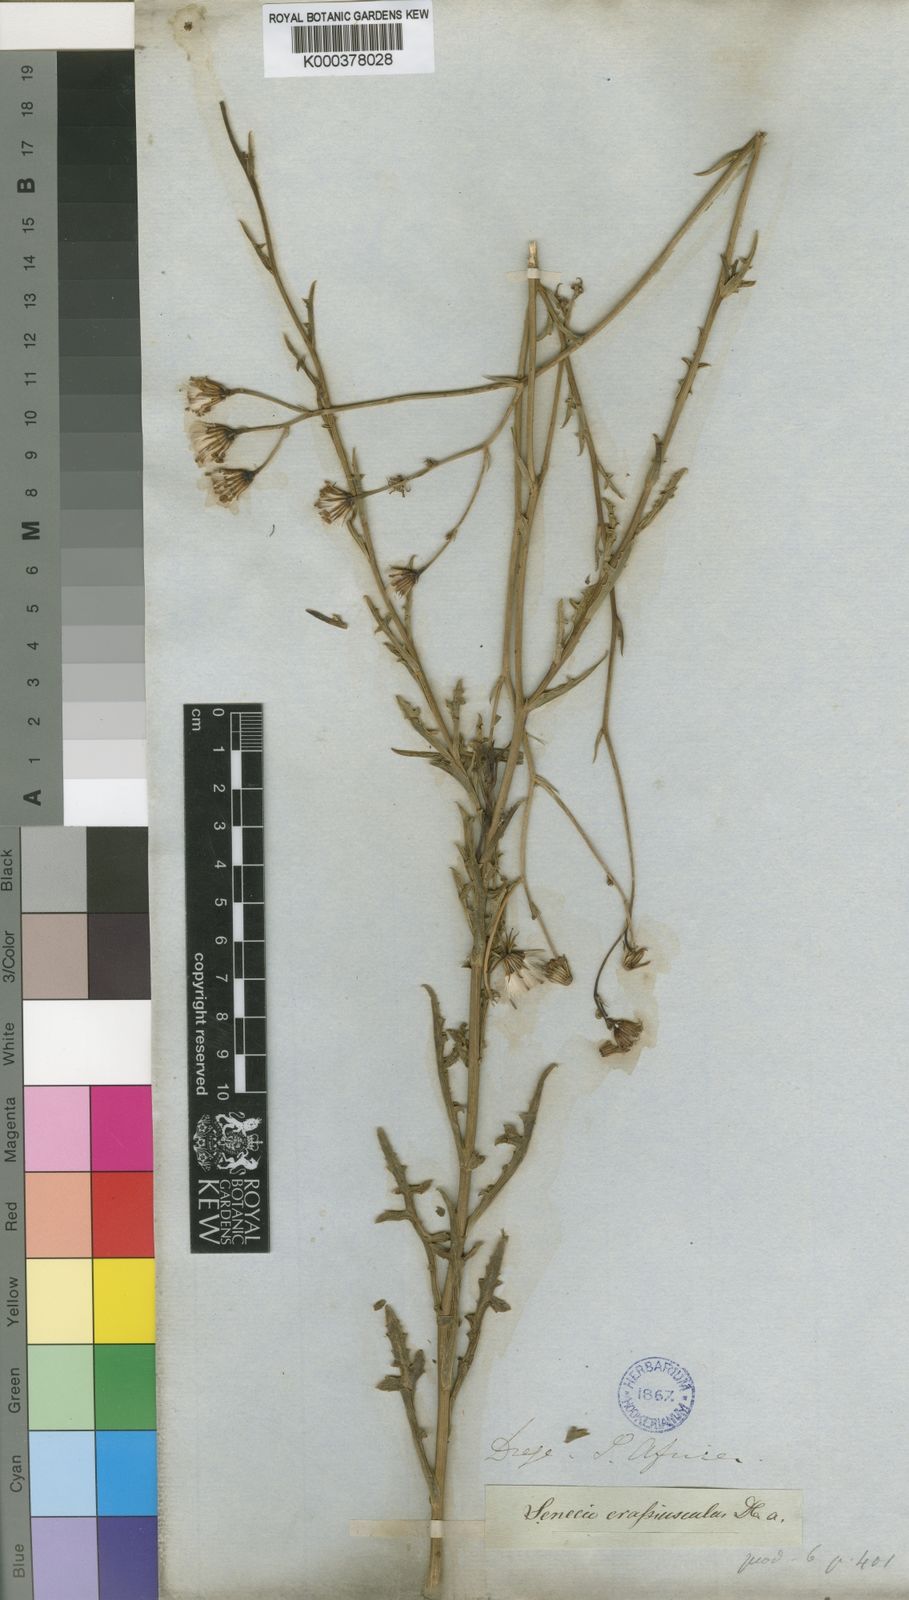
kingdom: Plantae
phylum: Tracheophyta
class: Magnoliopsida
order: Asterales
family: Asteraceae
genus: Senecio
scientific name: Senecio crassiusculus
